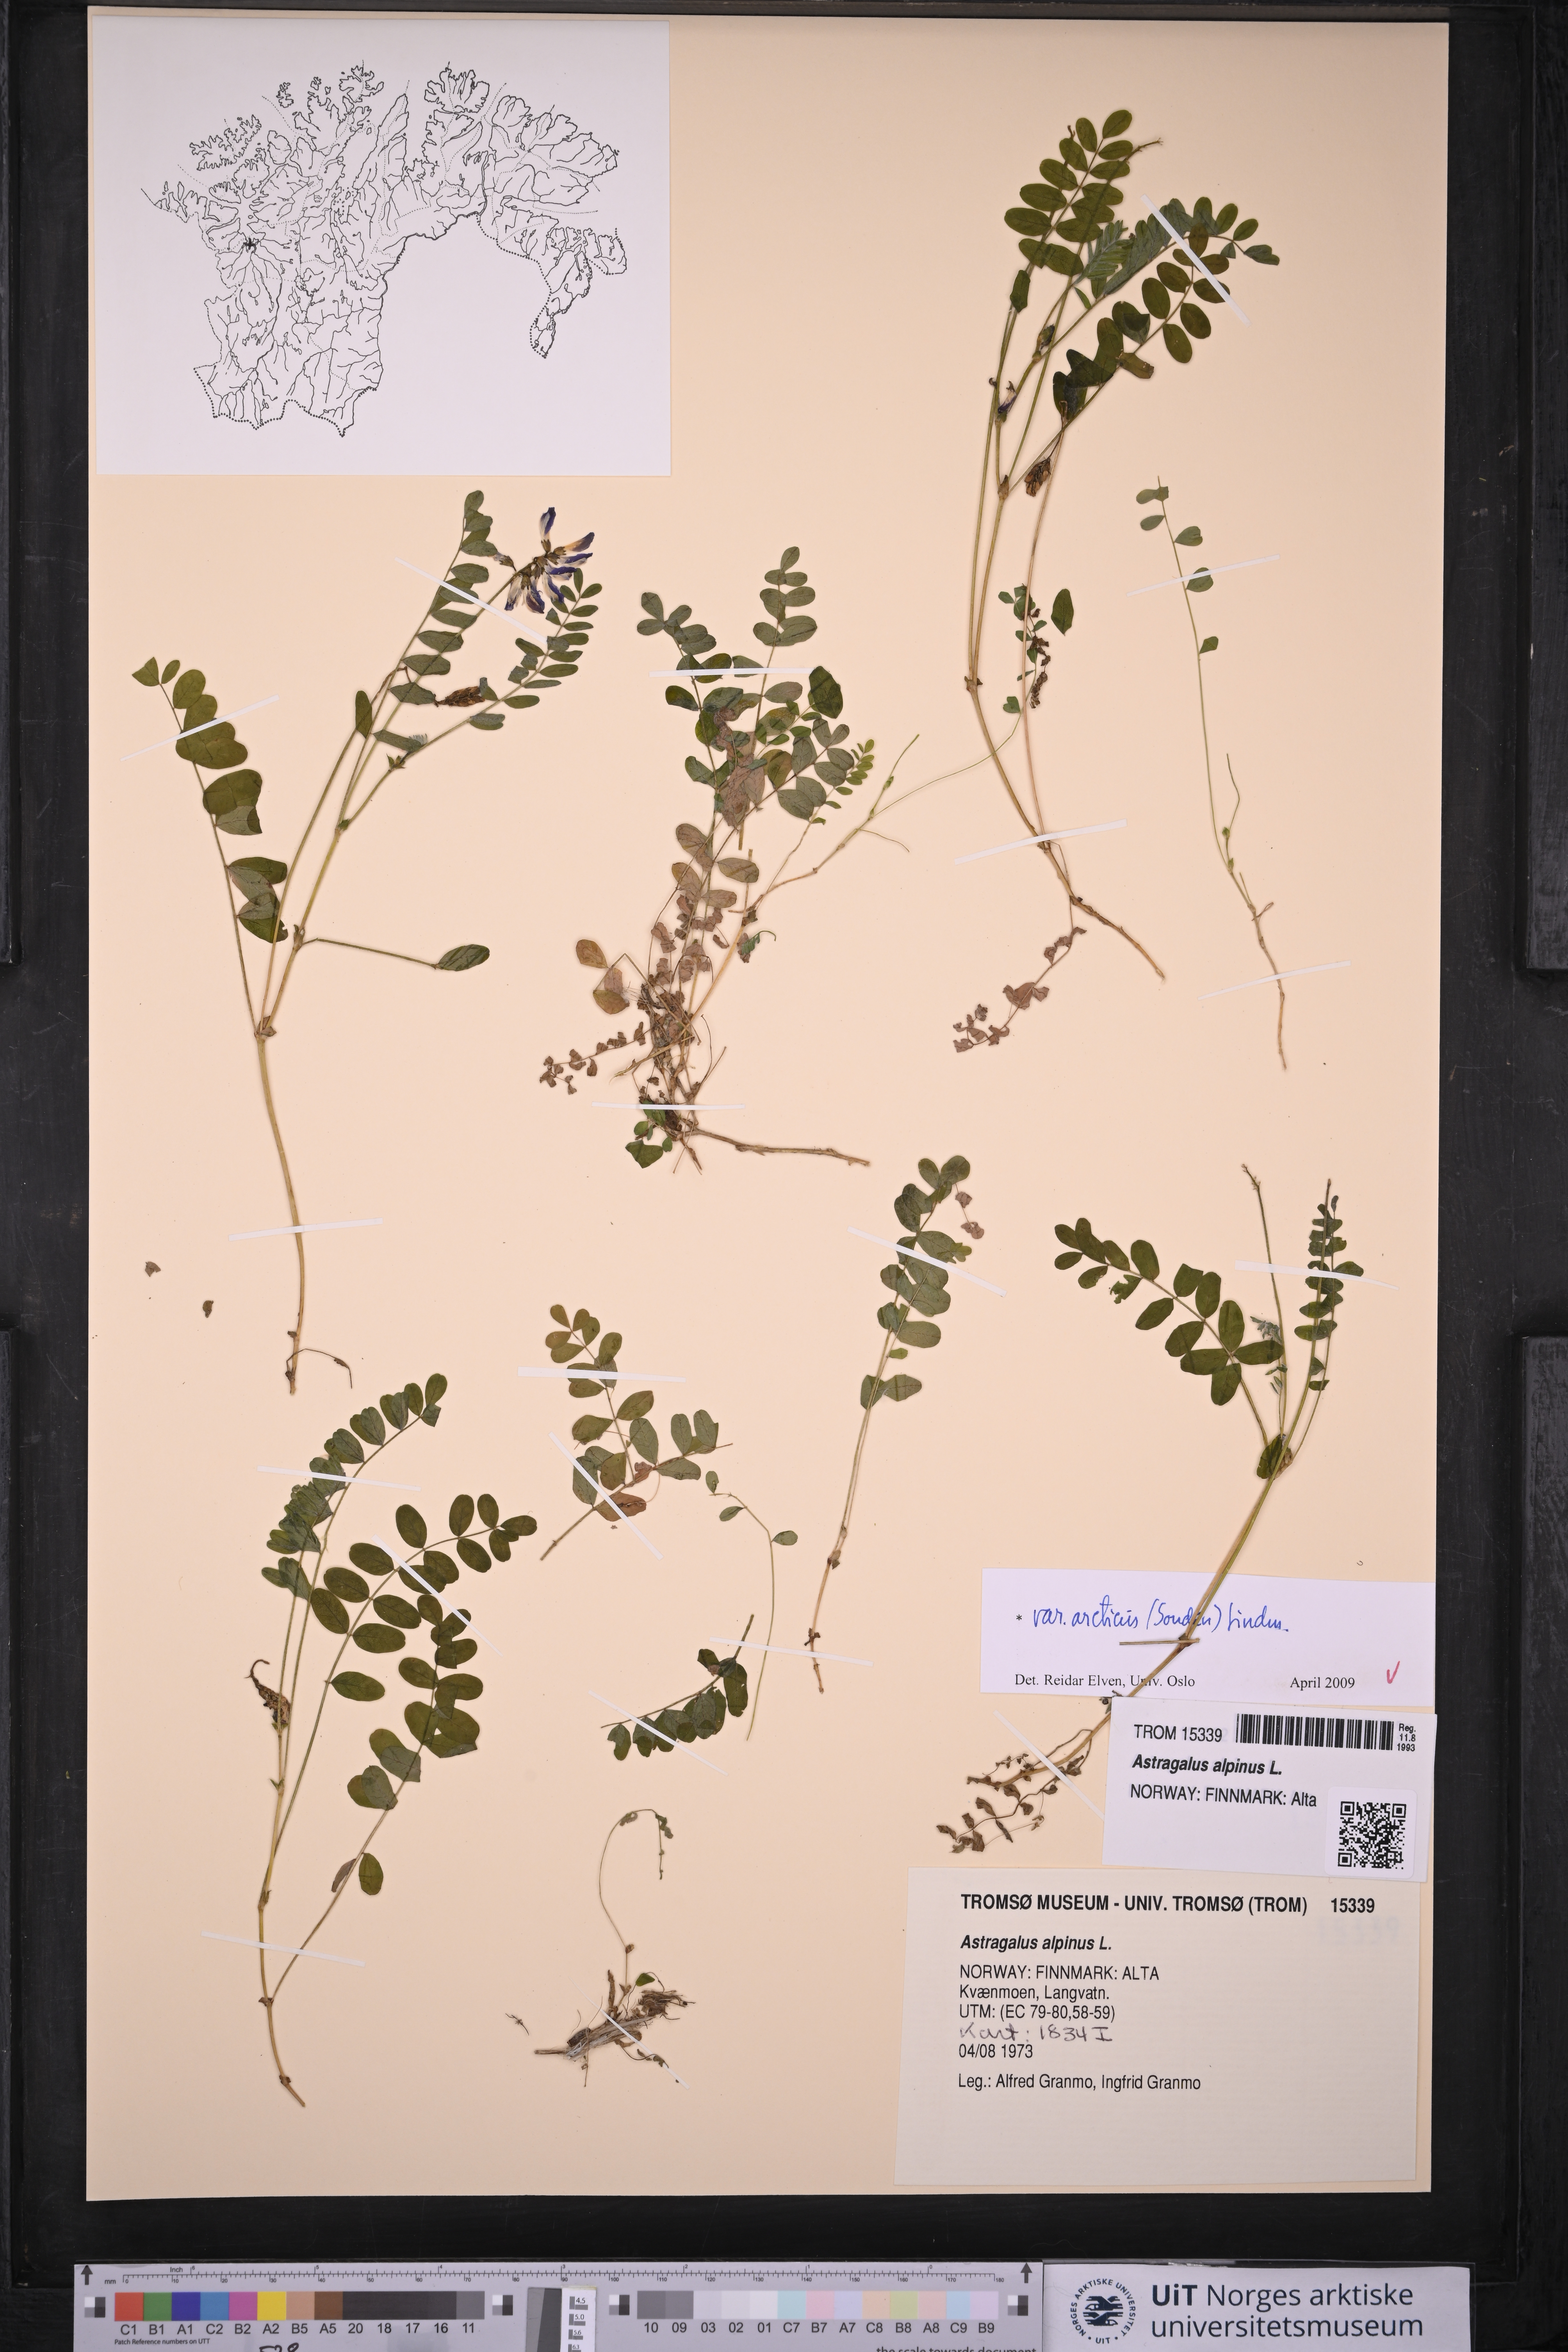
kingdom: Plantae
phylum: Tracheophyta
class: Magnoliopsida
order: Fabales
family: Fabaceae
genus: Astragalus
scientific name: Astragalus norvegicus
